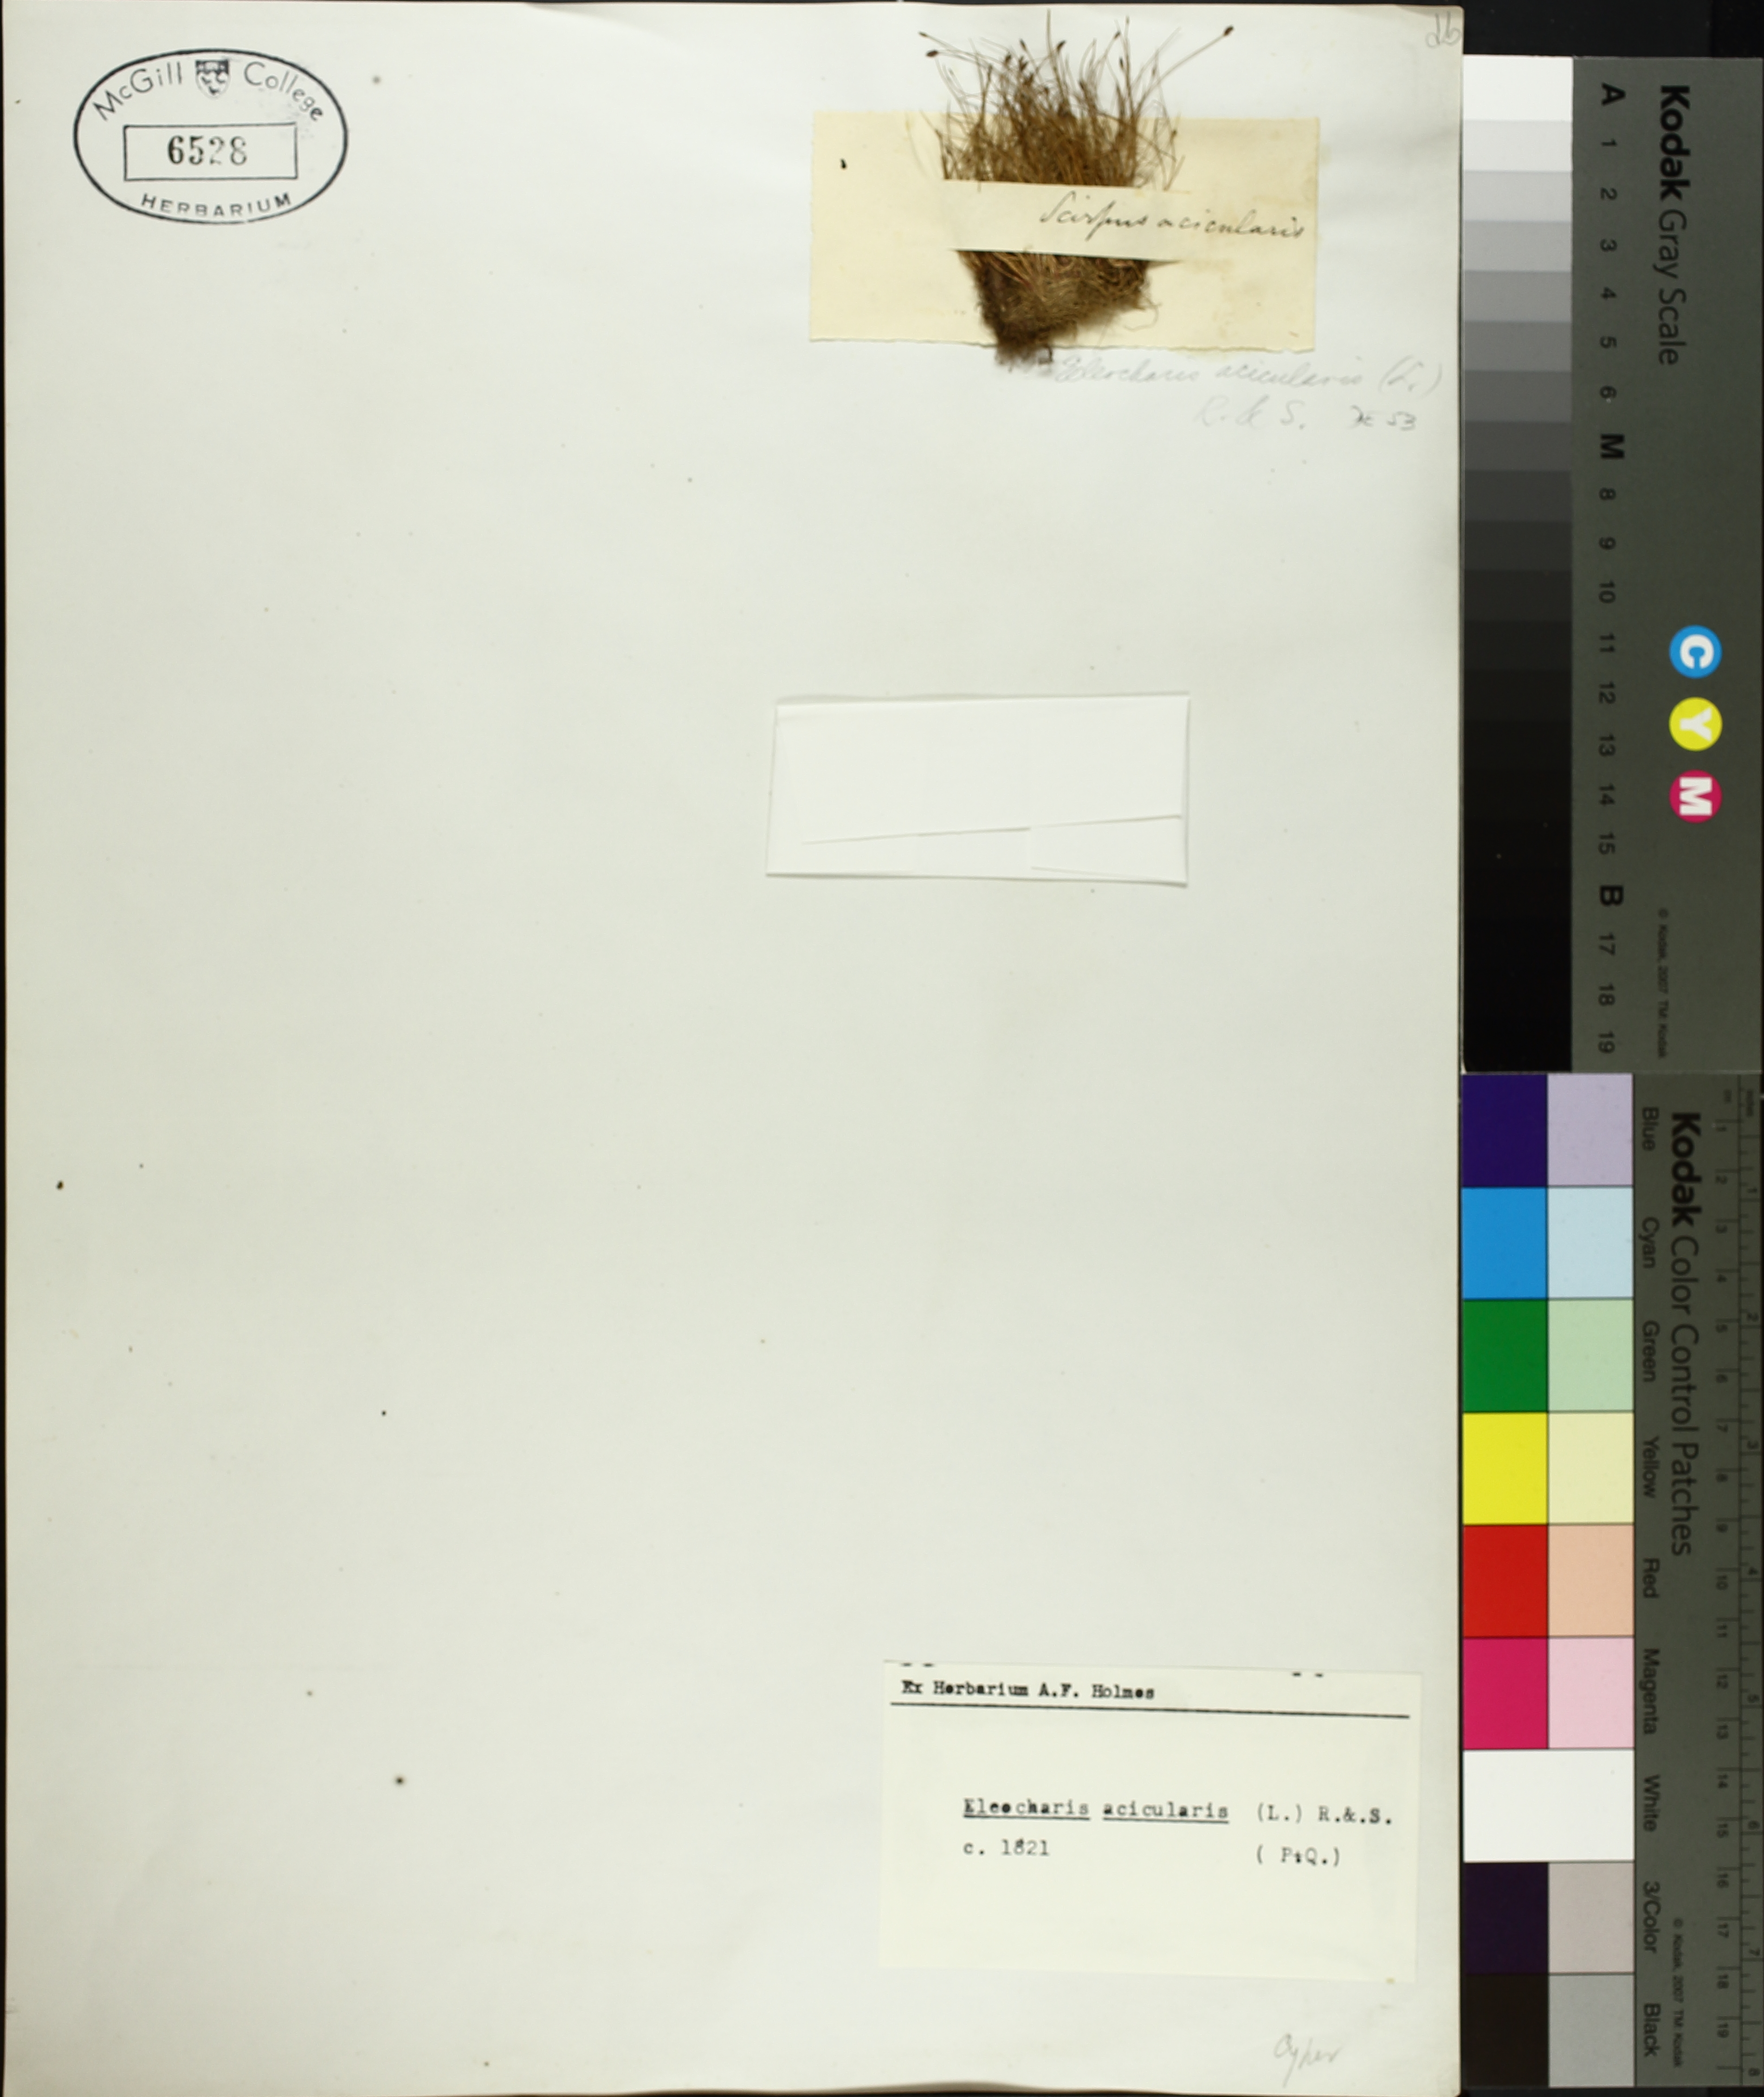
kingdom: Plantae
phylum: Tracheophyta
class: Liliopsida
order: Poales
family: Cyperaceae
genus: Eleocharis
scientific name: Eleocharis acicularis
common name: Needle spike-rush
